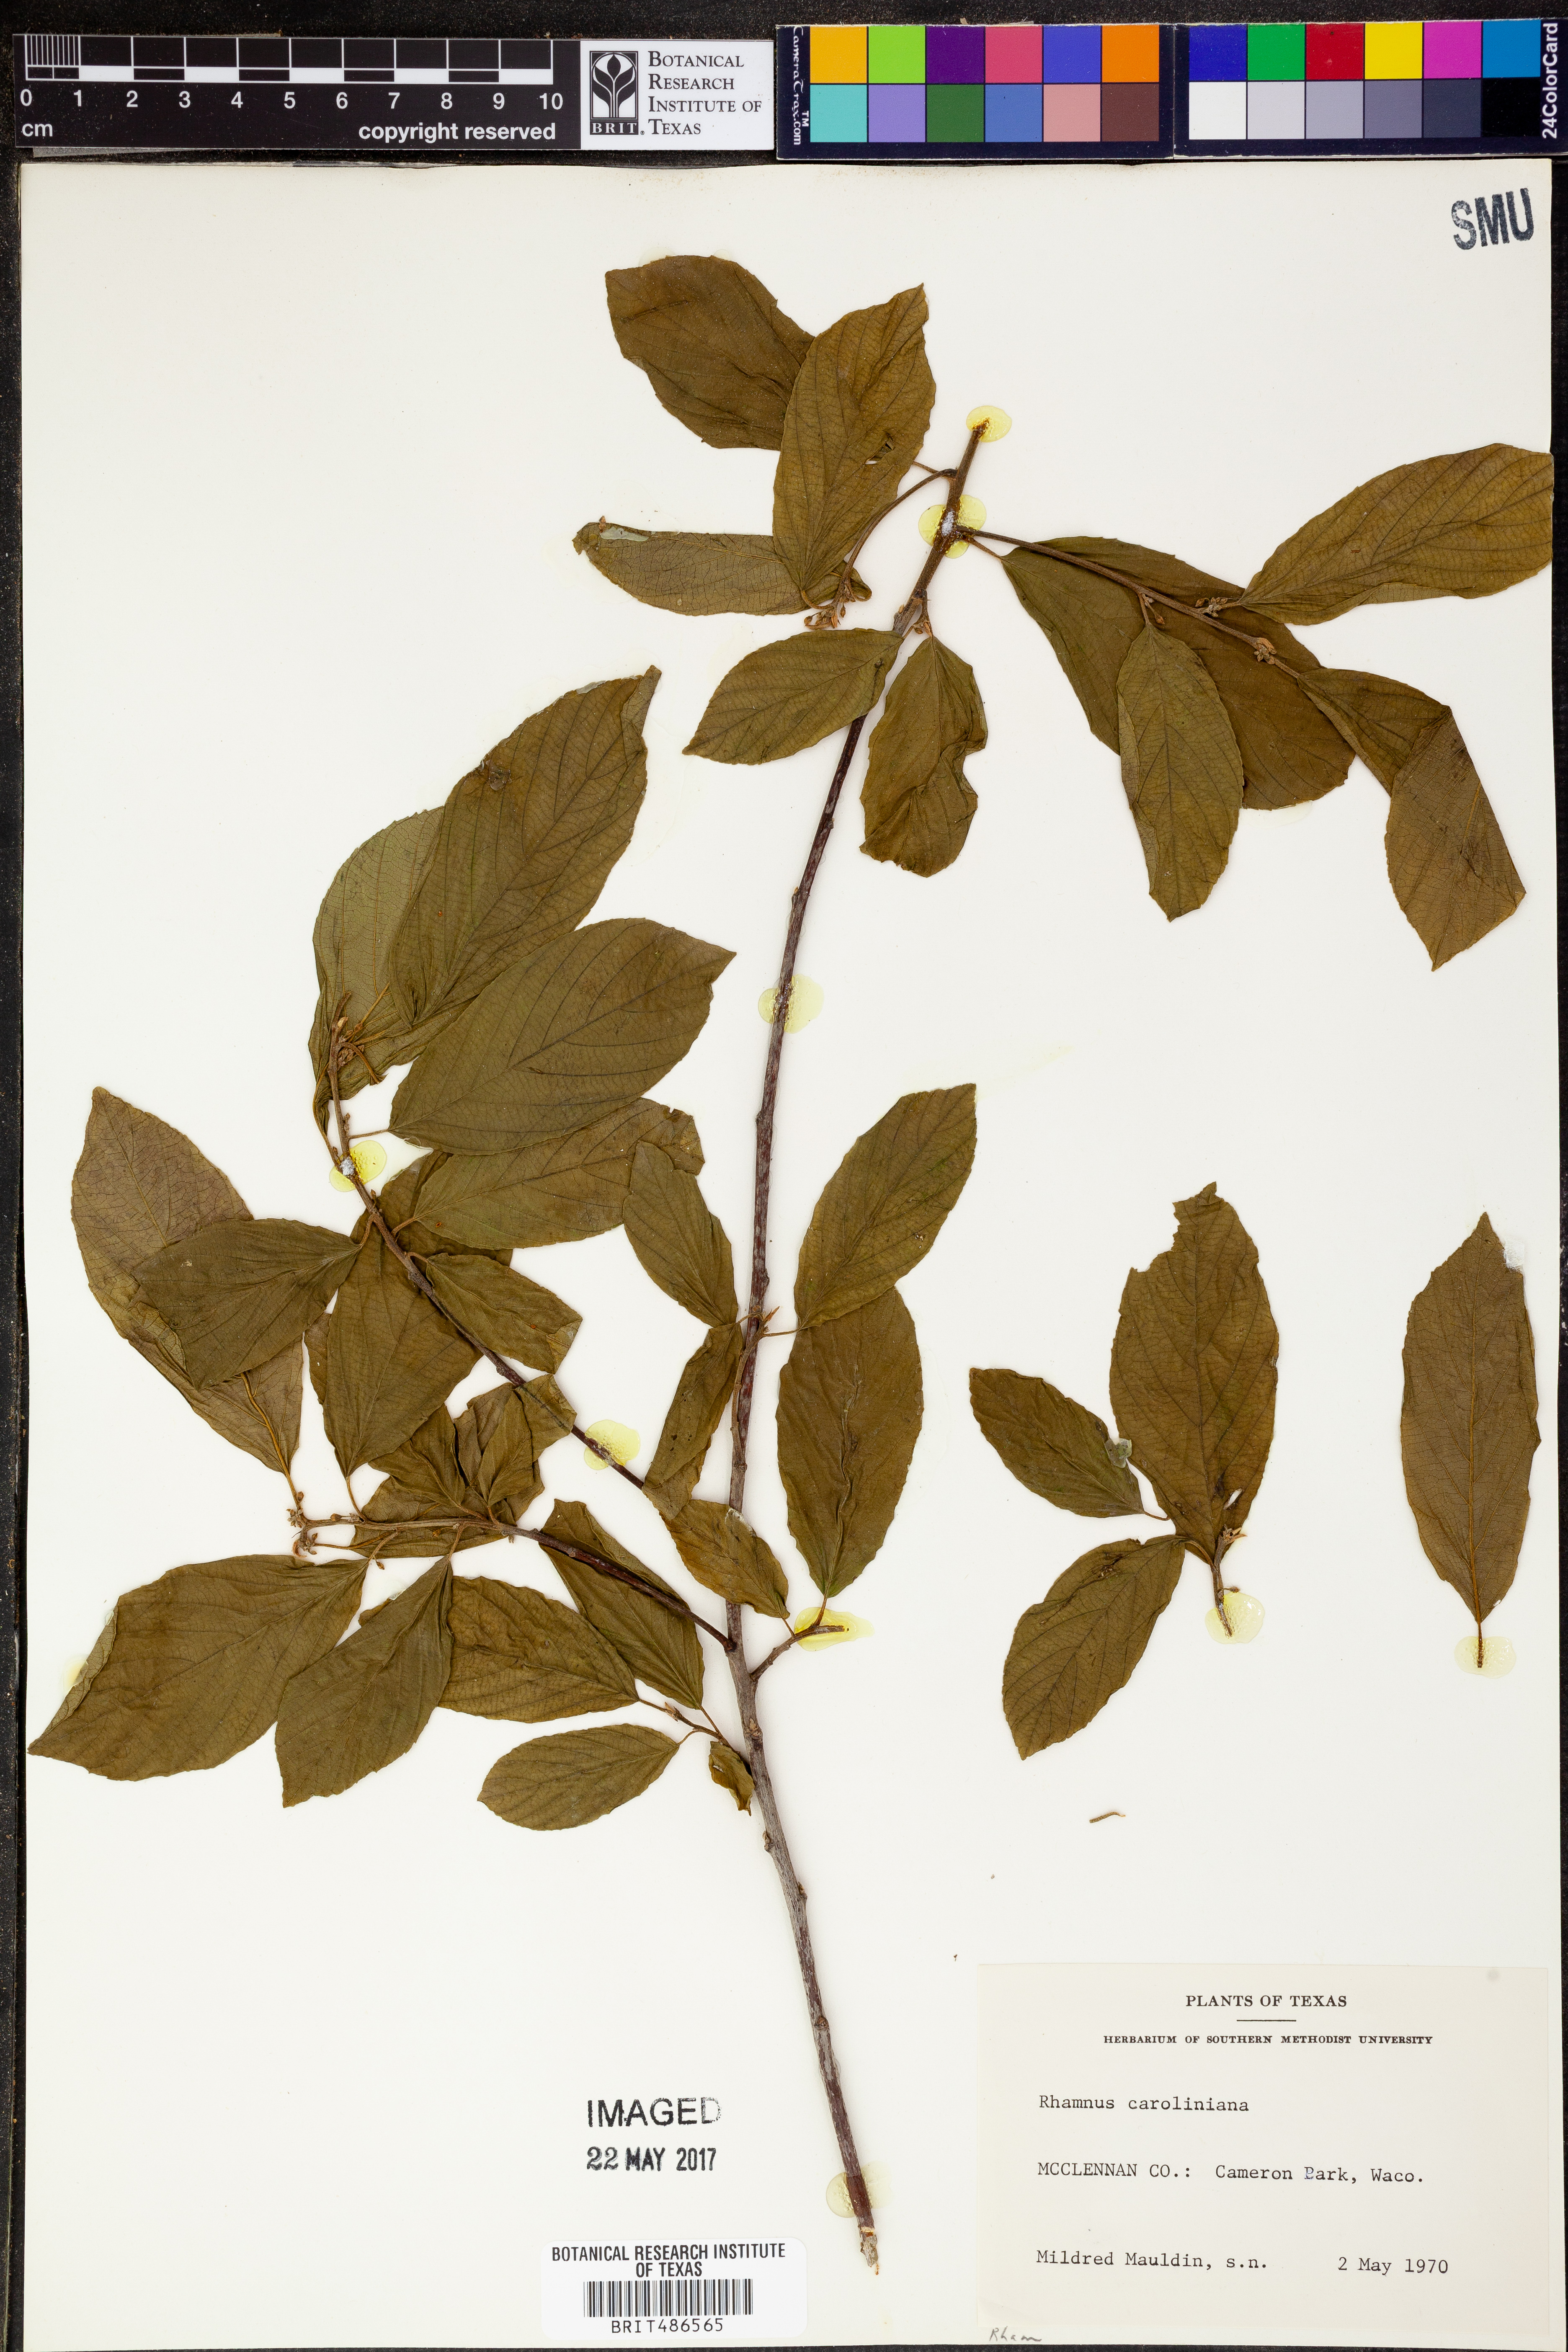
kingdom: Plantae
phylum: Tracheophyta
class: Magnoliopsida
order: Rosales
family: Rhamnaceae
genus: Frangula
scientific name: Frangula caroliniana
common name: Carolina buckthorn
